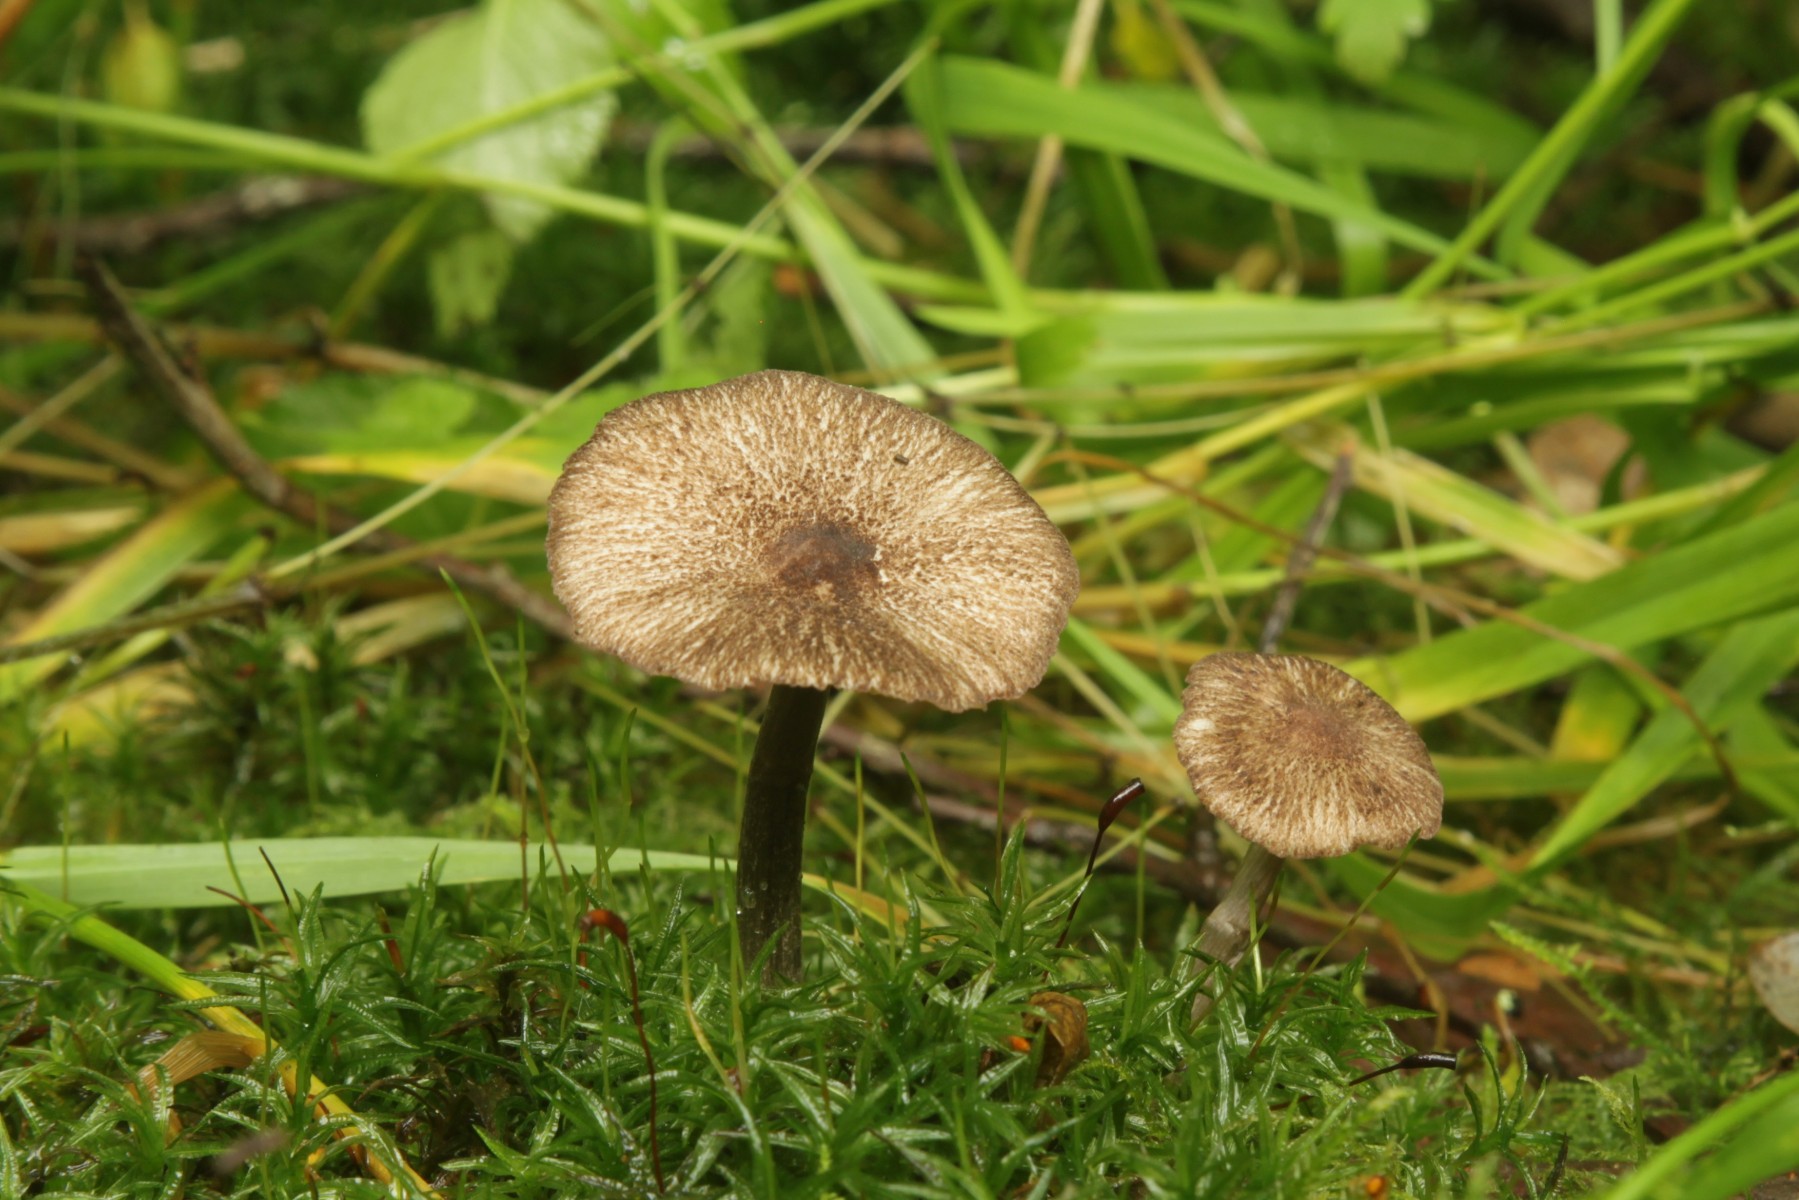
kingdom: Fungi
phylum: Basidiomycota
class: Agaricomycetes
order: Agaricales
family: Entolomataceae
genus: Entoloma
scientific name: Entoloma waverenii
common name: trævlet rødblad
